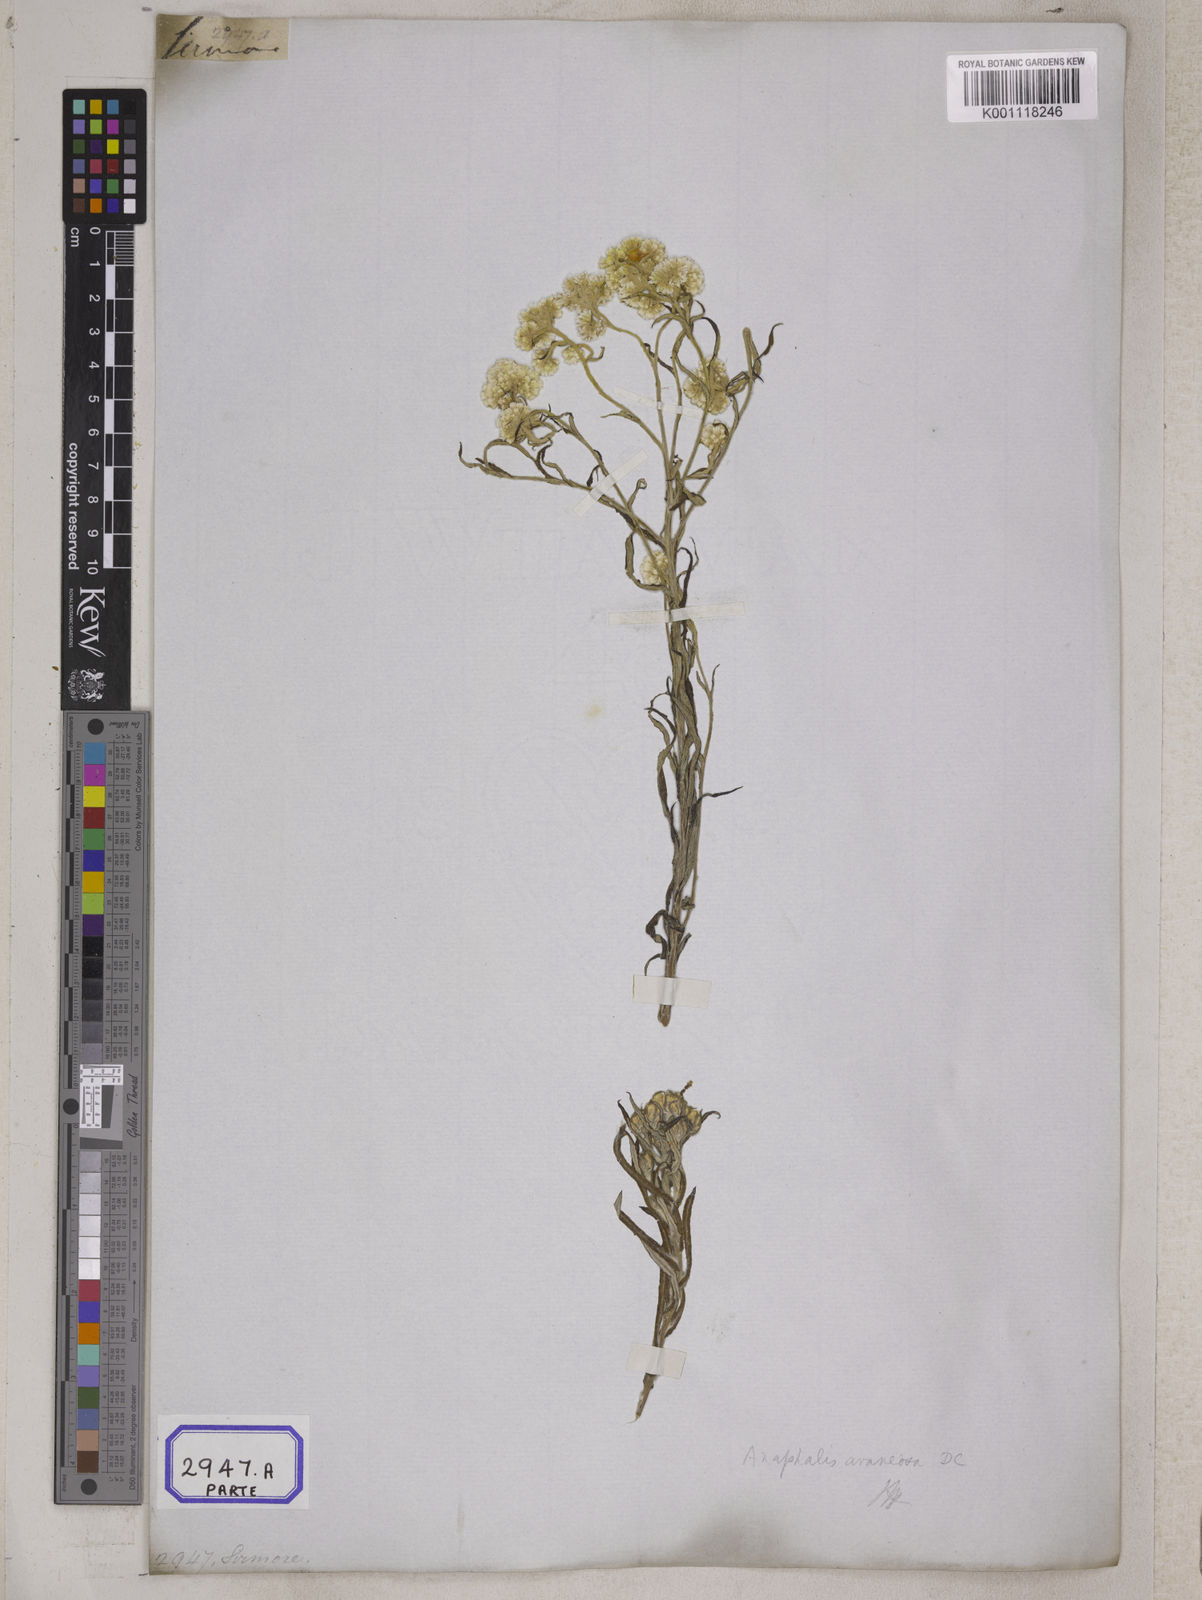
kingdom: Plantae
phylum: Tracheophyta
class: Magnoliopsida
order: Asterales
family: Asteraceae
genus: Anaphalis
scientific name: Anaphalis busua
